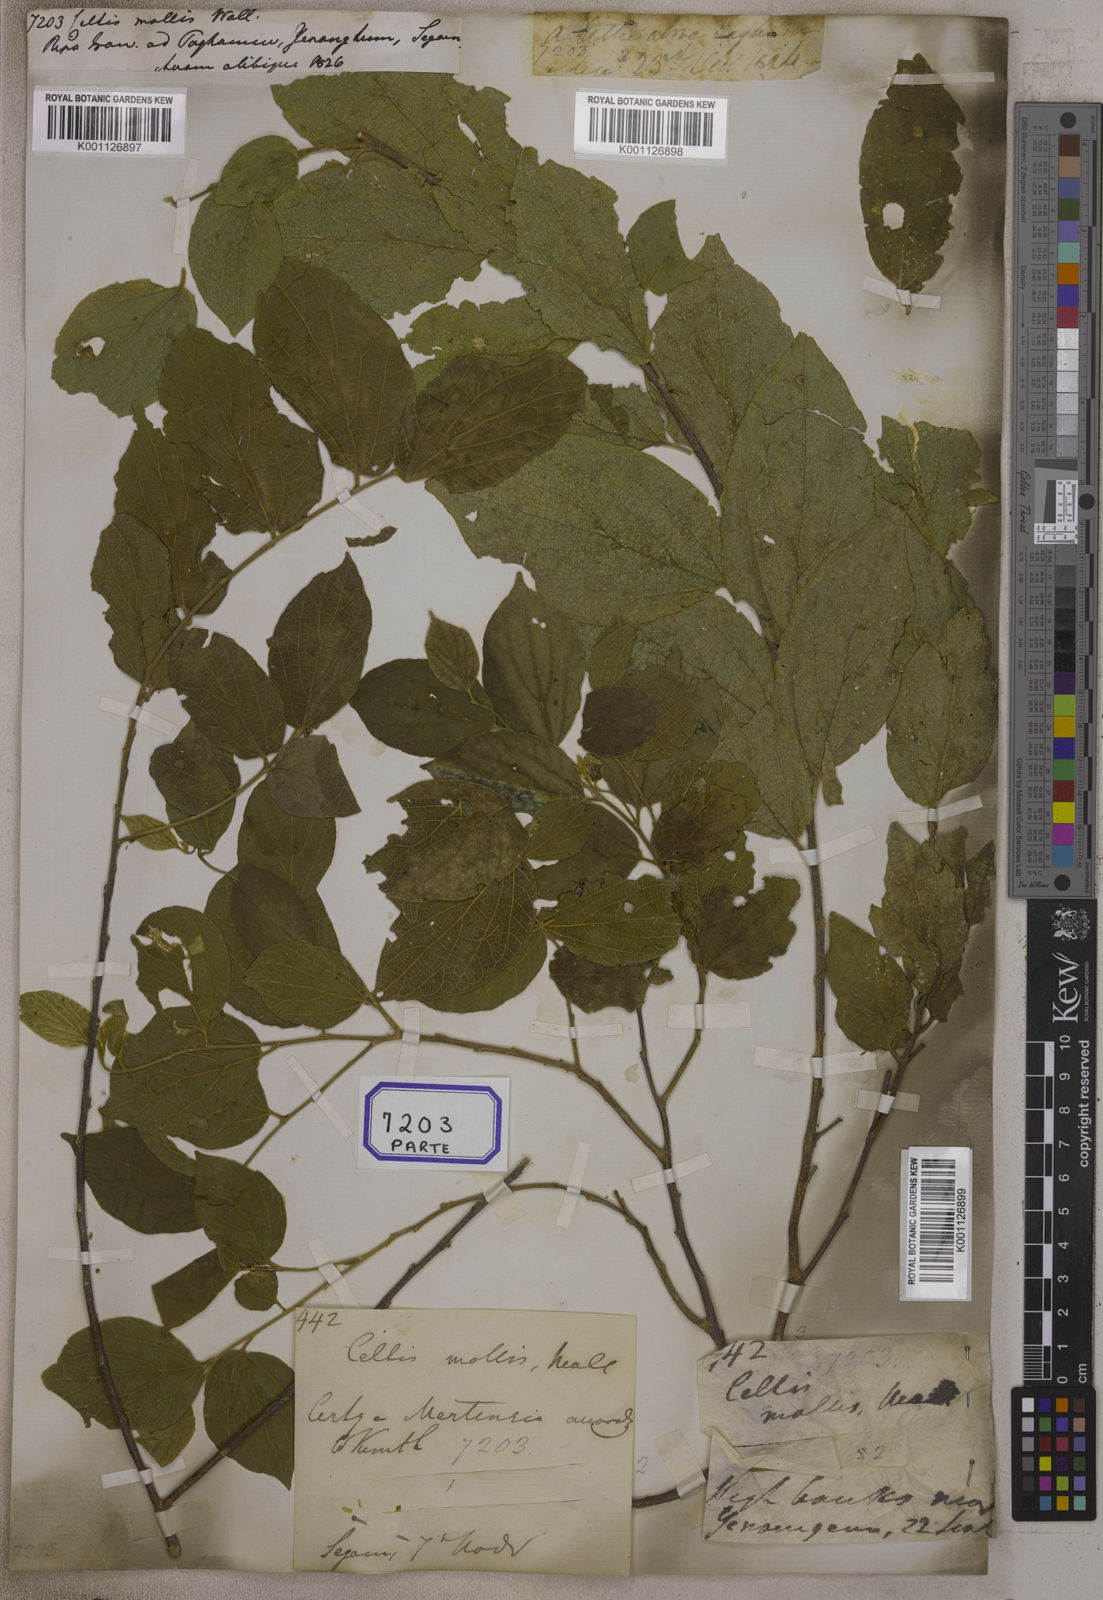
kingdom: Plantae
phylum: Tracheophyta
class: Magnoliopsida
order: Rosales
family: Cannabaceae
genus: Celtis
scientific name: Celtis
